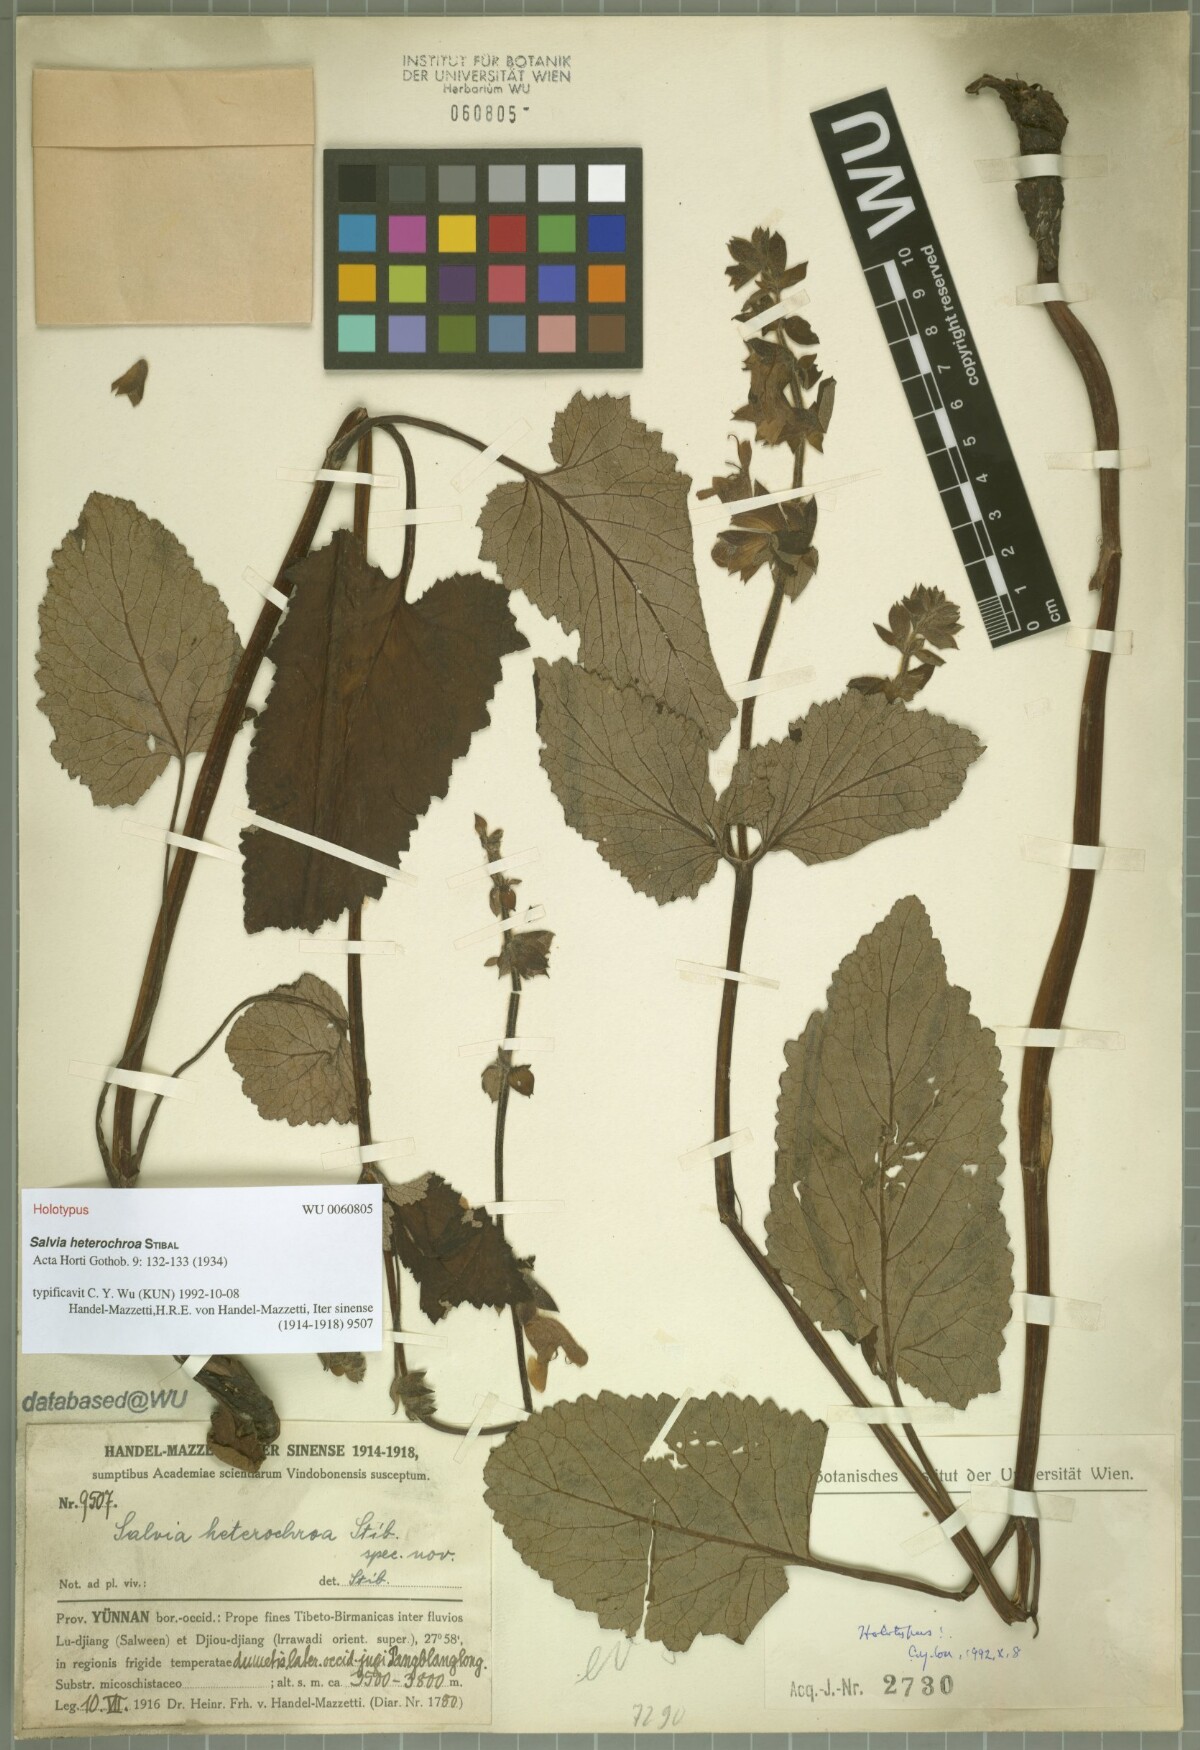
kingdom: Plantae
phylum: Tracheophyta
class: Magnoliopsida
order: Lamiales
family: Lamiaceae
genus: Salvia
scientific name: Salvia heterochroa
